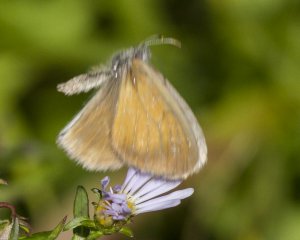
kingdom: Animalia
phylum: Arthropoda
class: Insecta
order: Lepidoptera
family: Nymphalidae
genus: Coenonympha
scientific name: Coenonympha tullia
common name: Large Heath
